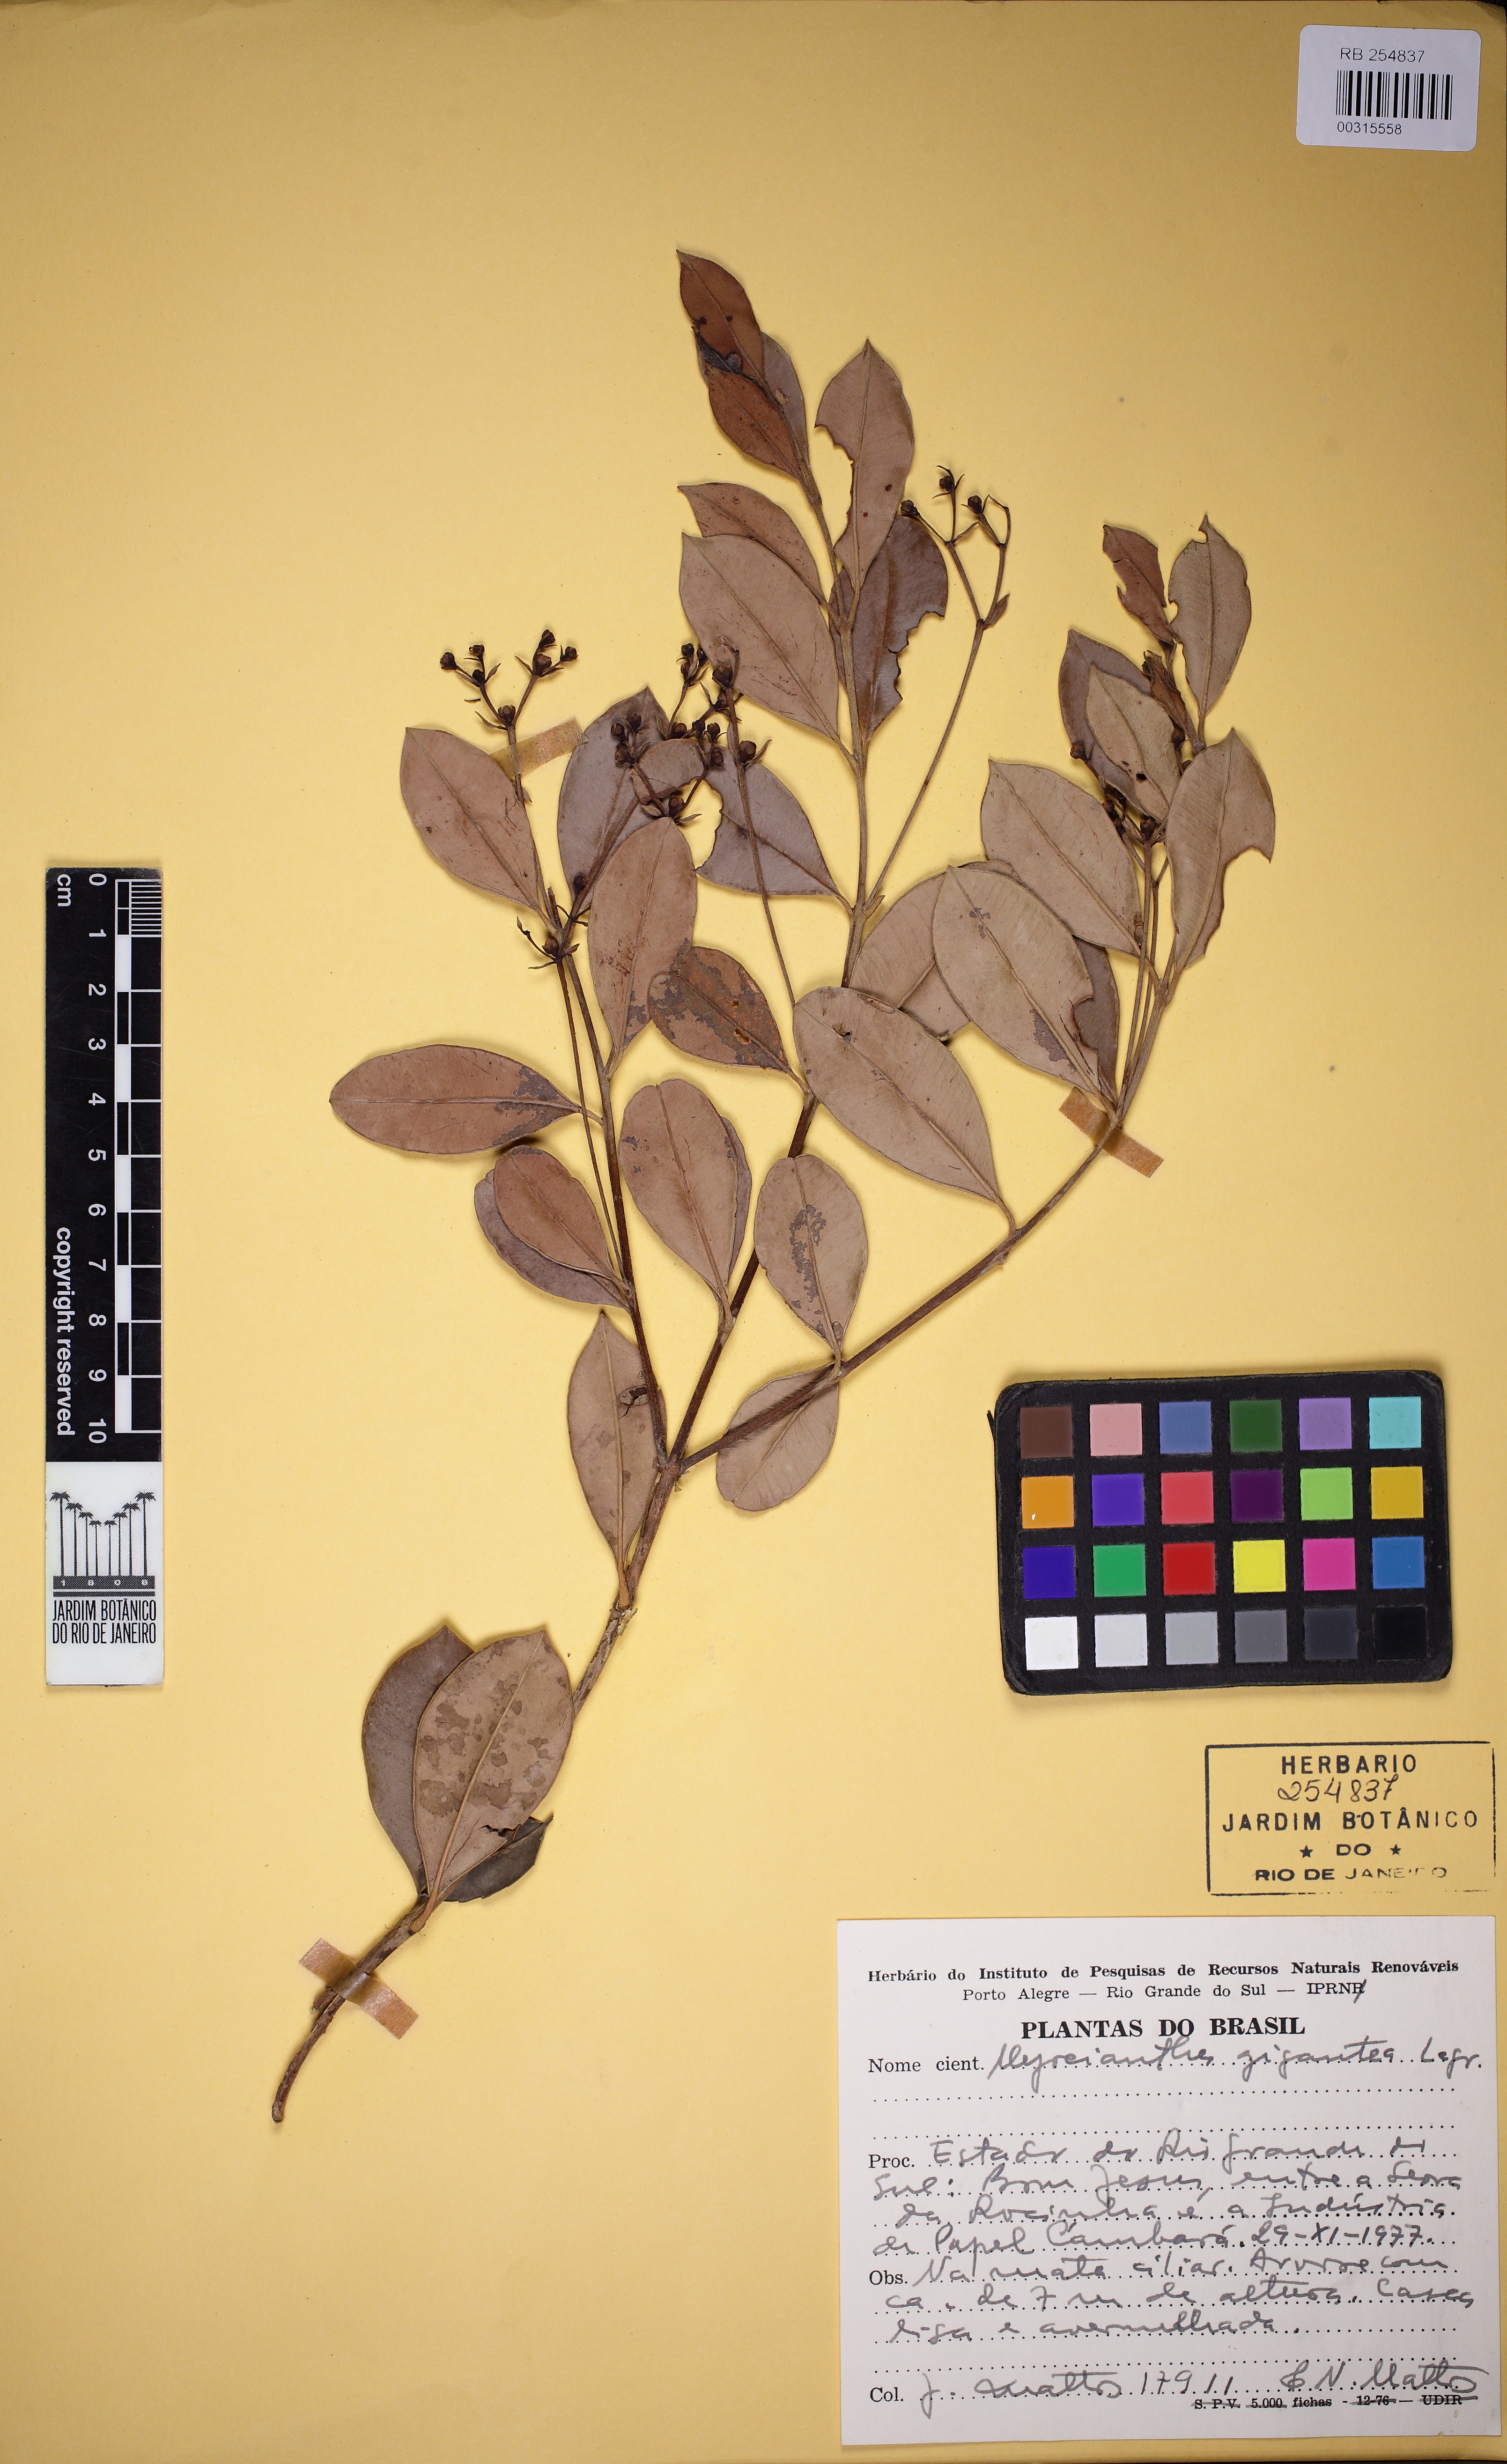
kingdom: Plantae
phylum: Tracheophyta
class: Magnoliopsida
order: Myrtales
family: Myrtaceae
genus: Myrcianthes
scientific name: Myrcianthes gigantea
